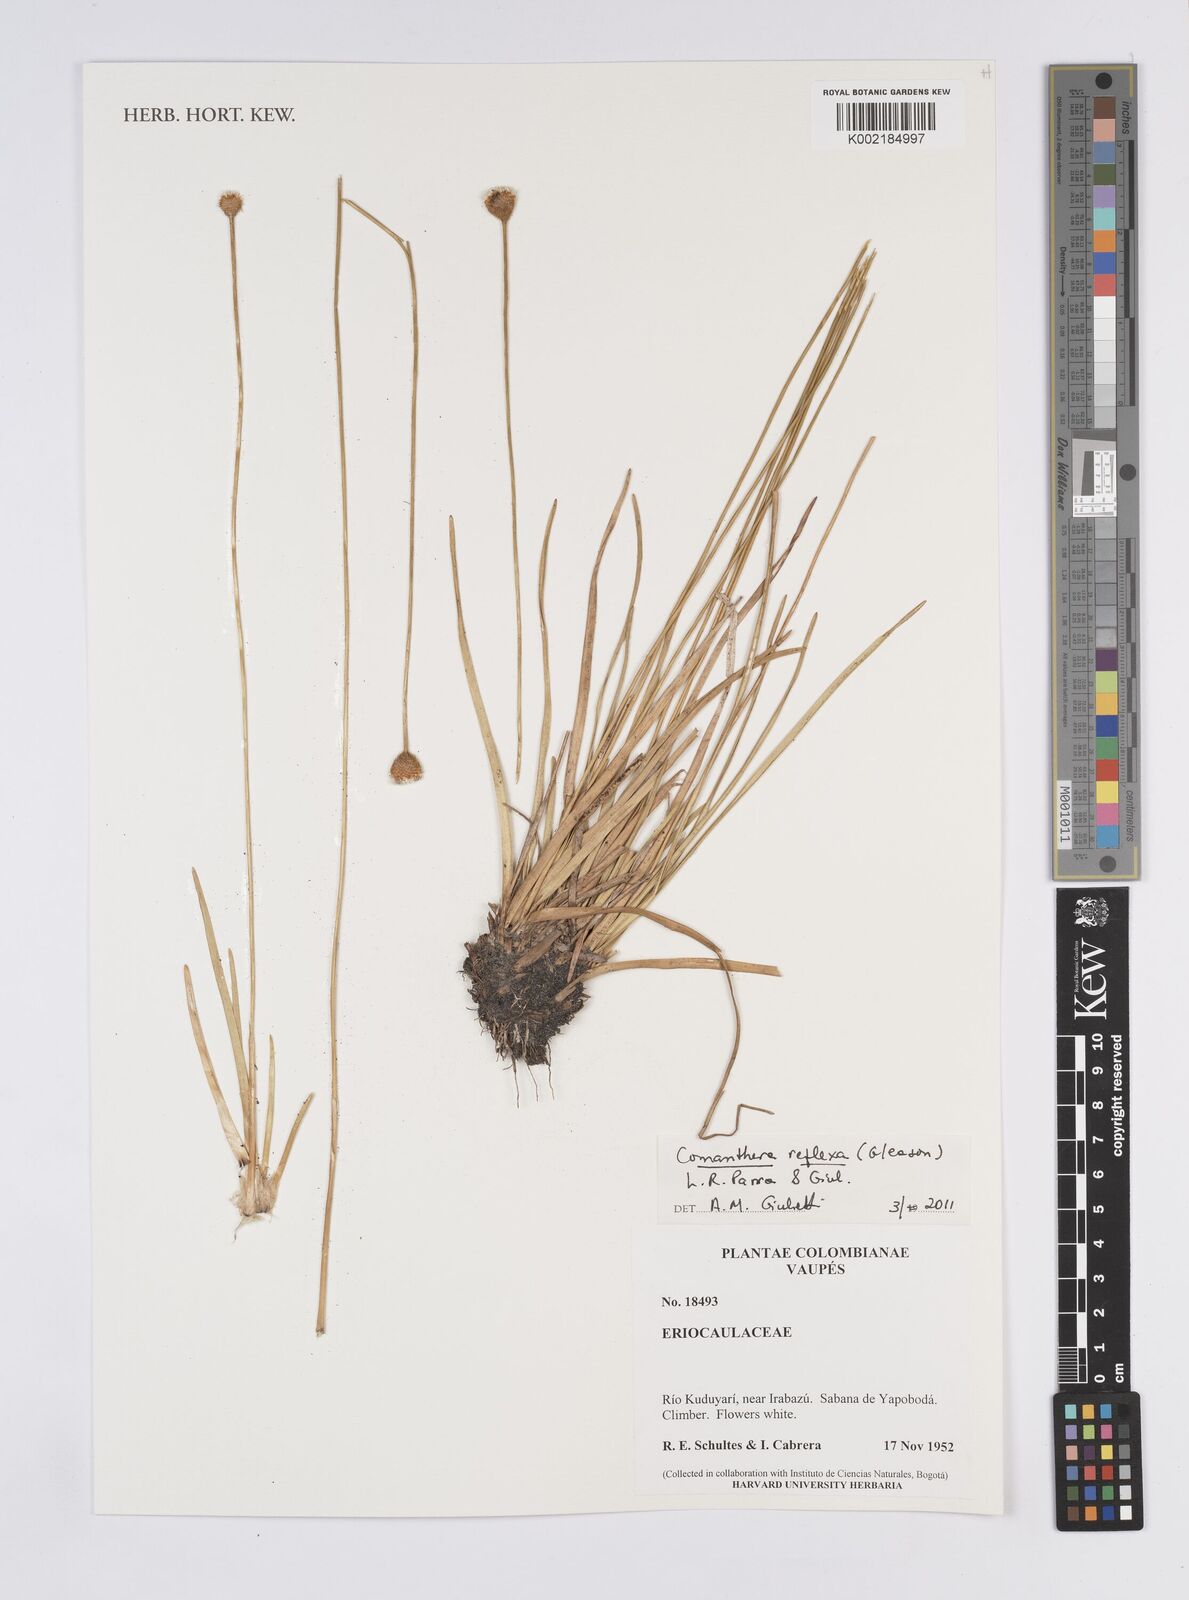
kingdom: Plantae
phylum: Tracheophyta
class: Liliopsida
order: Poales
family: Eriocaulaceae
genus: Comanthera
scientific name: Comanthera reflexa
